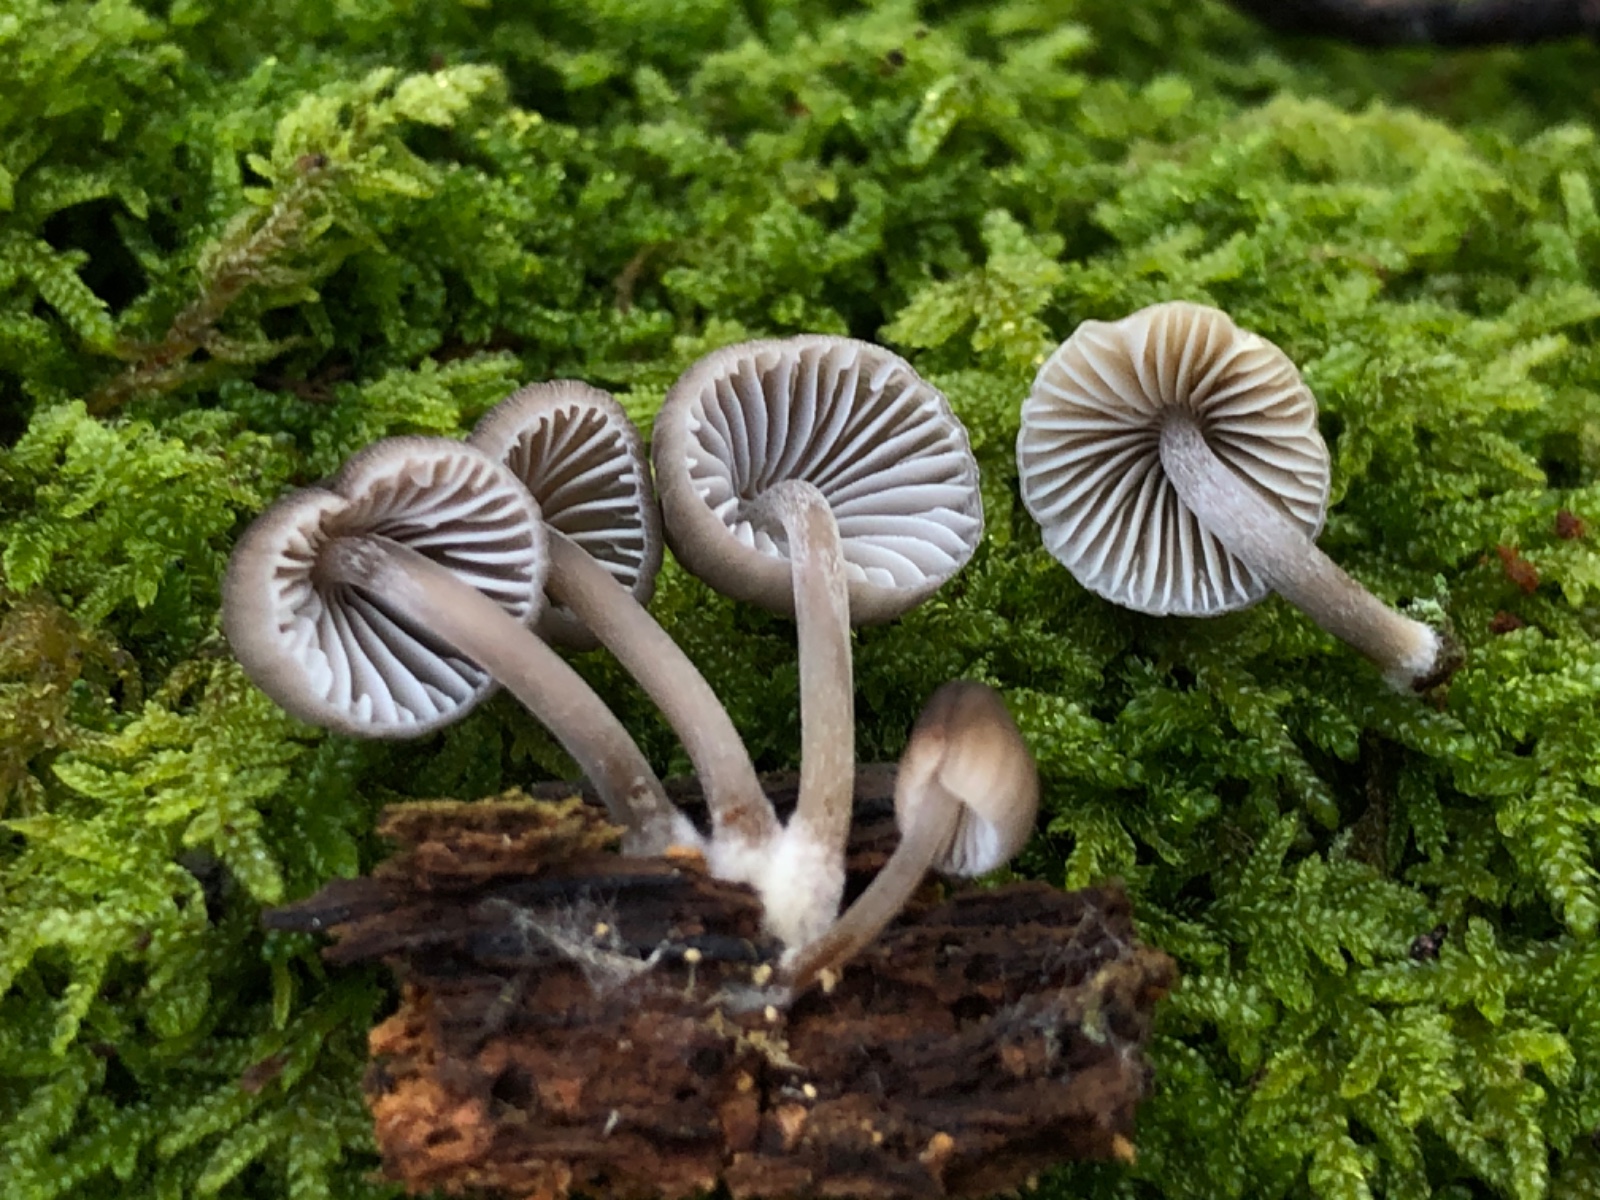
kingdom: Fungi
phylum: Basidiomycota
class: Agaricomycetes
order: Agaricales
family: Mycenaceae
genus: Mycena
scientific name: Mycena inclinata
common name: nikkende huesvamp
